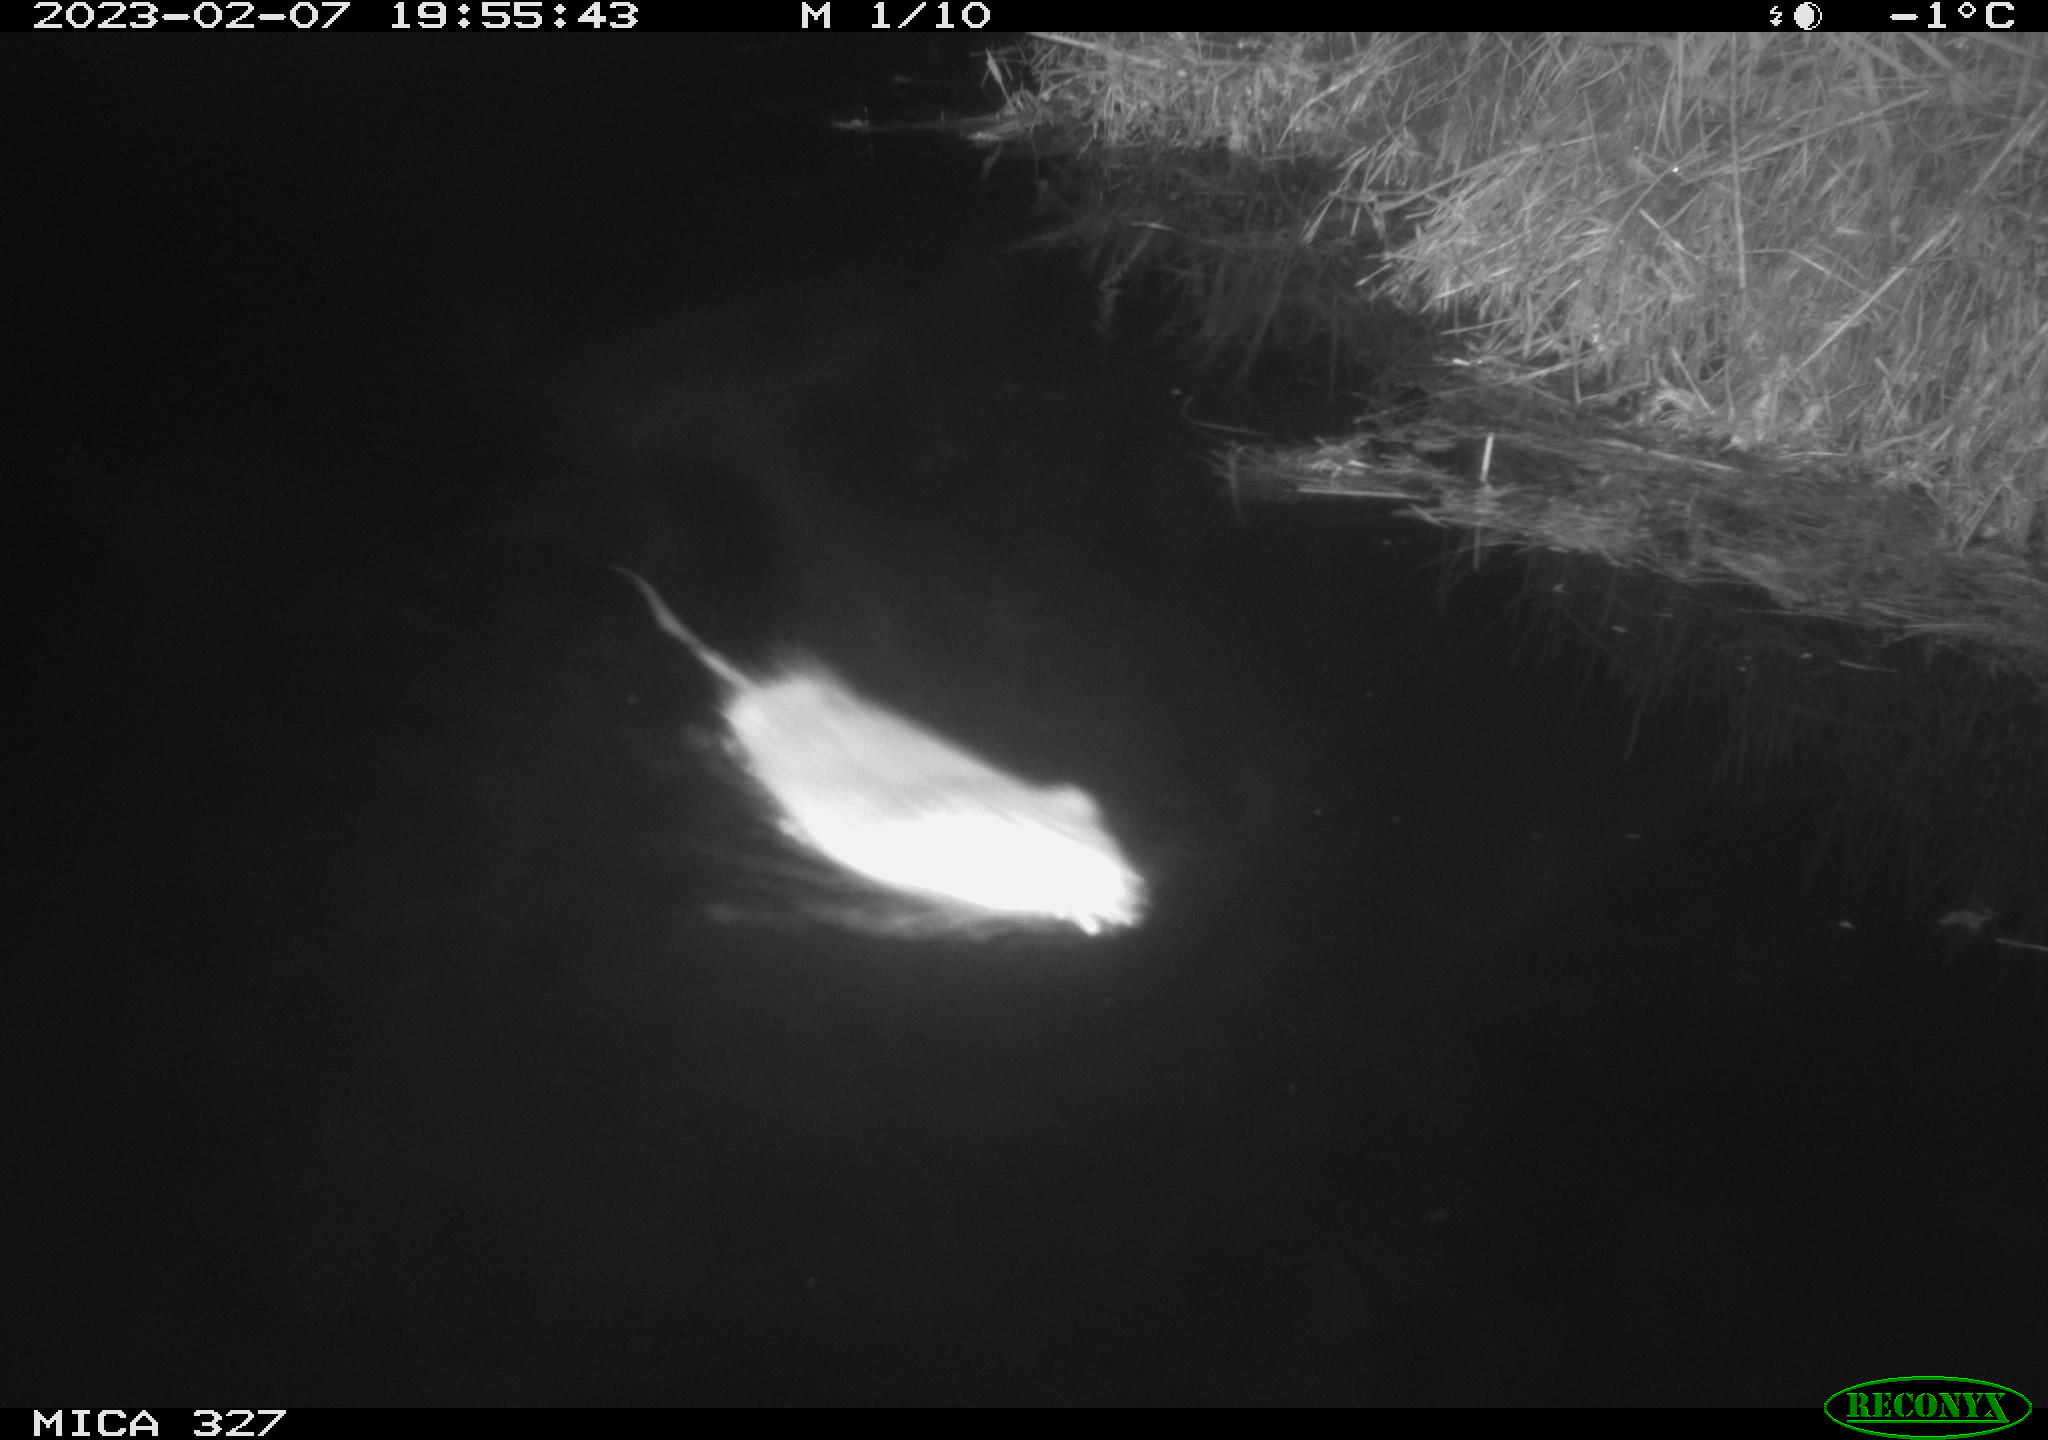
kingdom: Animalia
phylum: Chordata
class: Mammalia
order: Rodentia
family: Cricetidae
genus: Ondatra
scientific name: Ondatra zibethicus
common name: Muskrat
